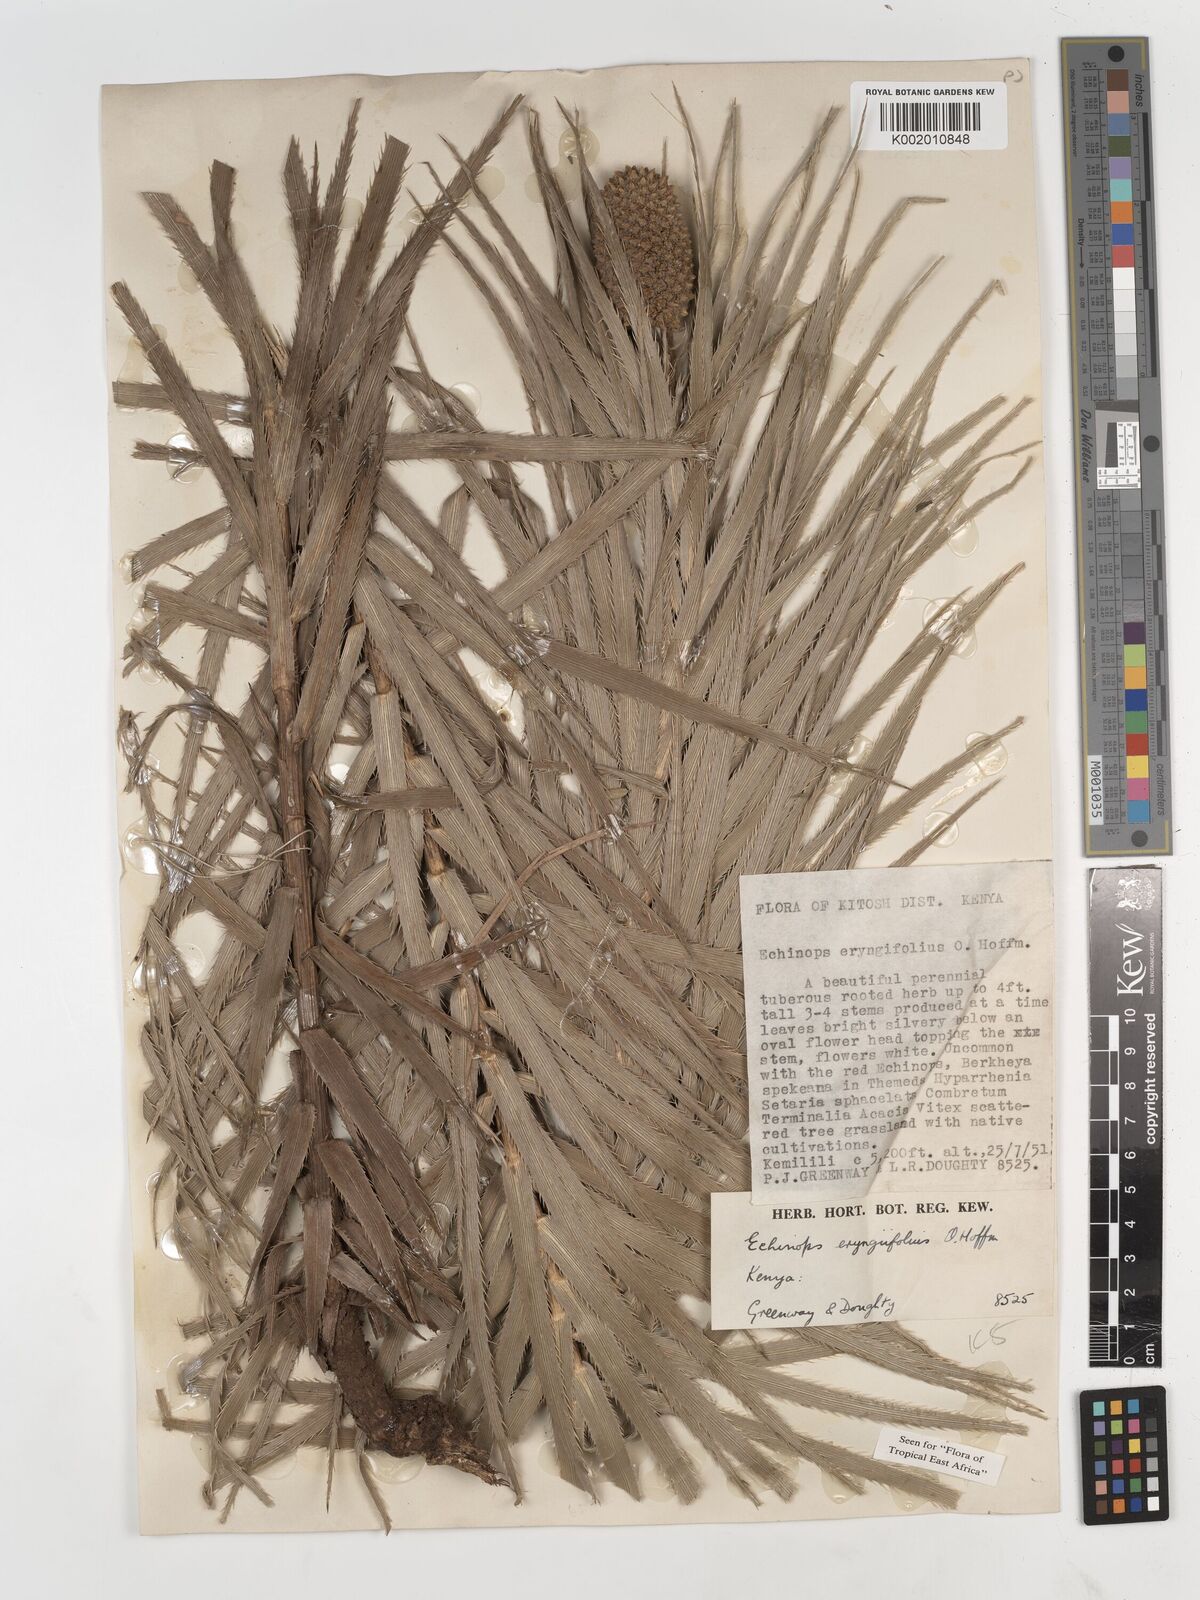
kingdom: Plantae
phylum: Tracheophyta
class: Magnoliopsida
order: Asterales
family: Asteraceae
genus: Echinops
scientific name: Echinops eryngiifolius
